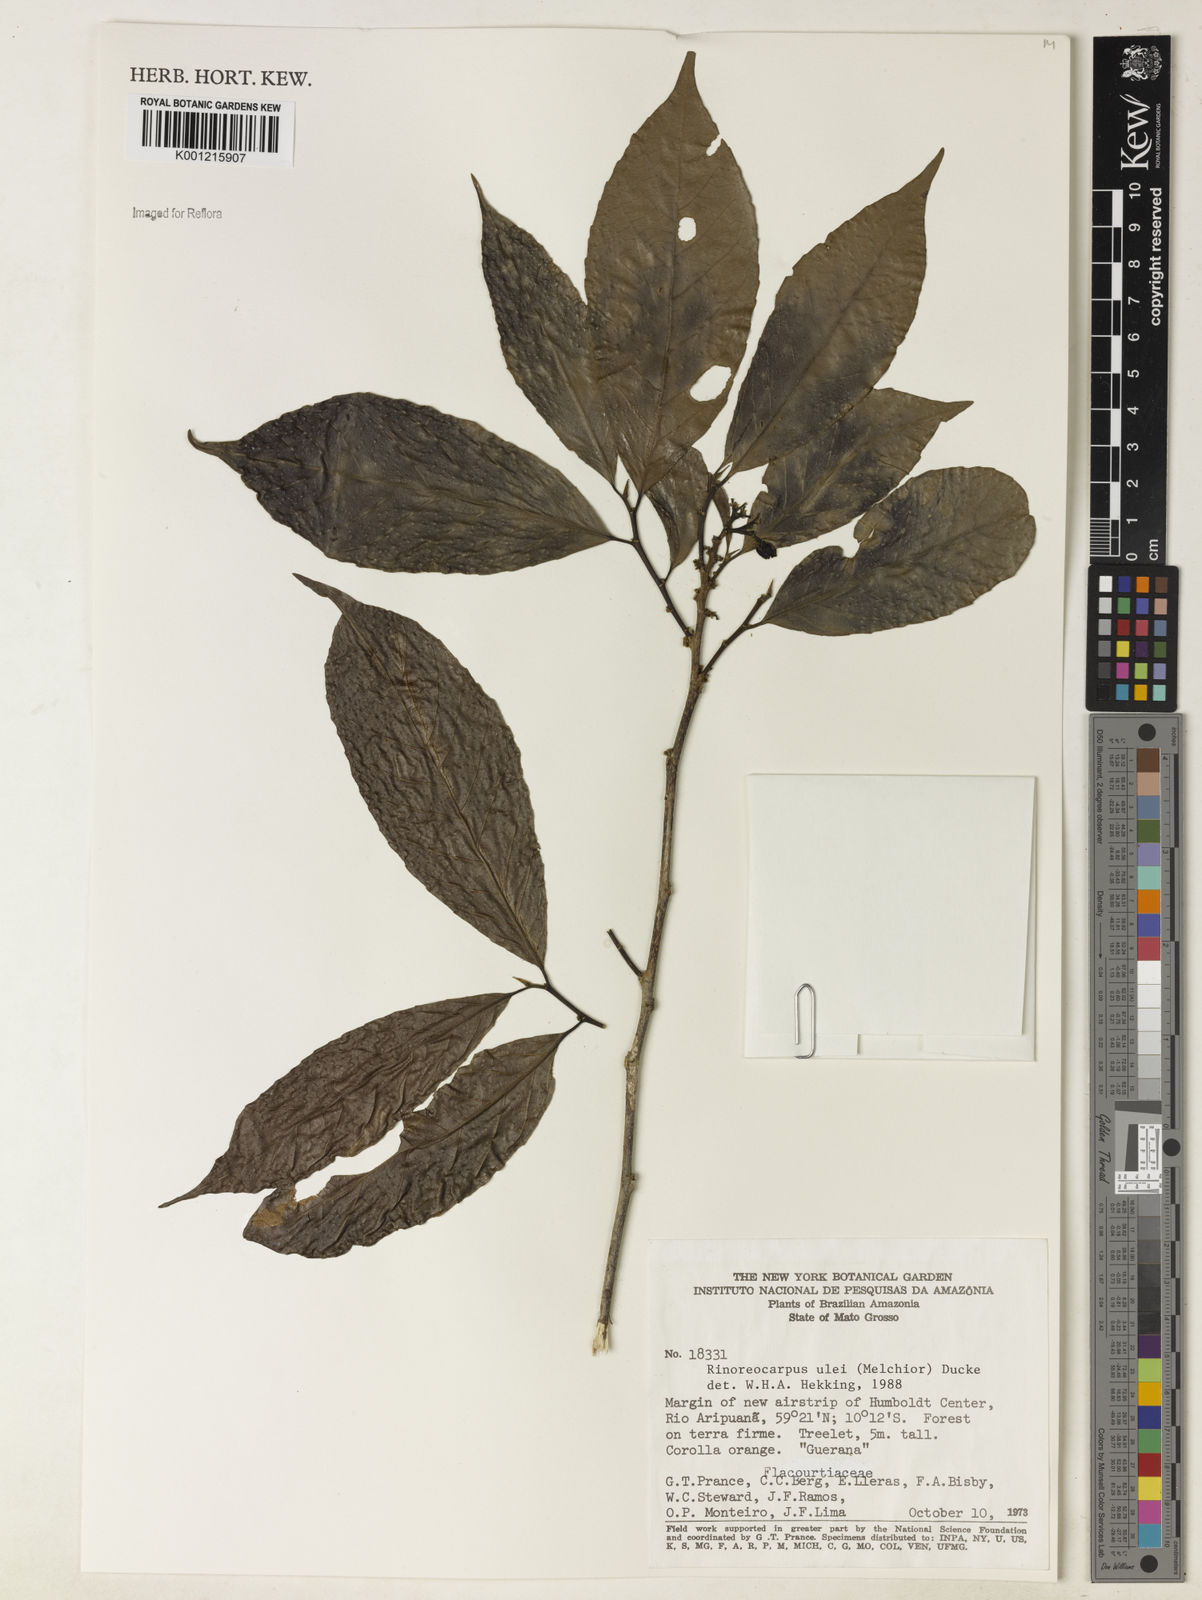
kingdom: Plantae
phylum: Tracheophyta
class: Magnoliopsida
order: Malpighiales
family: Violaceae
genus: Rinorea
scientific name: Rinorea
